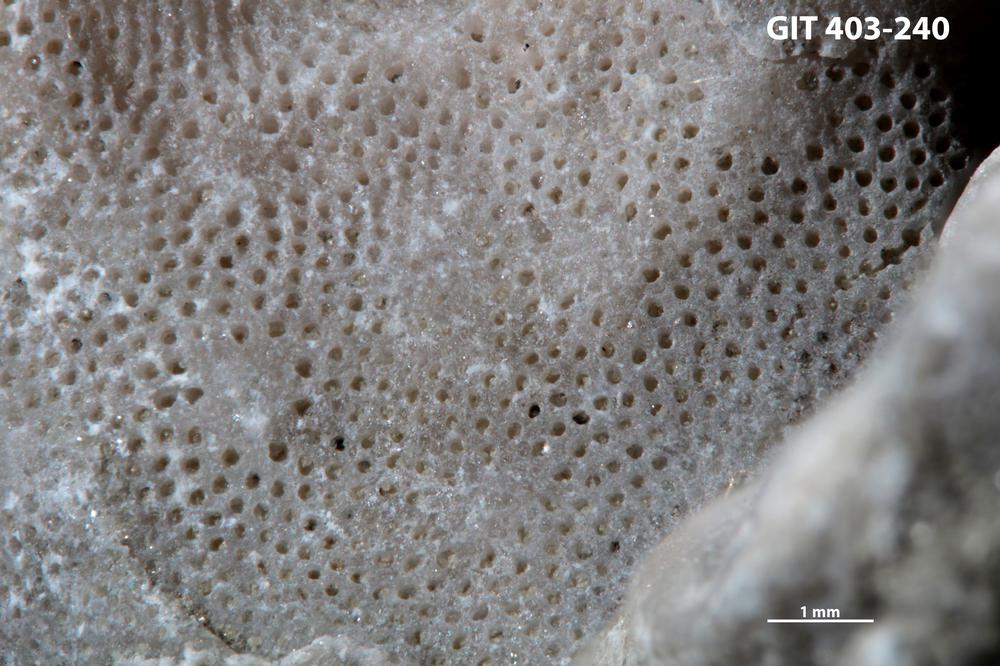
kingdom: Animalia
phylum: Bryozoa
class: Stenolaemata
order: Cystoporida
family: Fistuliporidae
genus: Fistulipora
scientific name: Fistulipora przhidolensis
